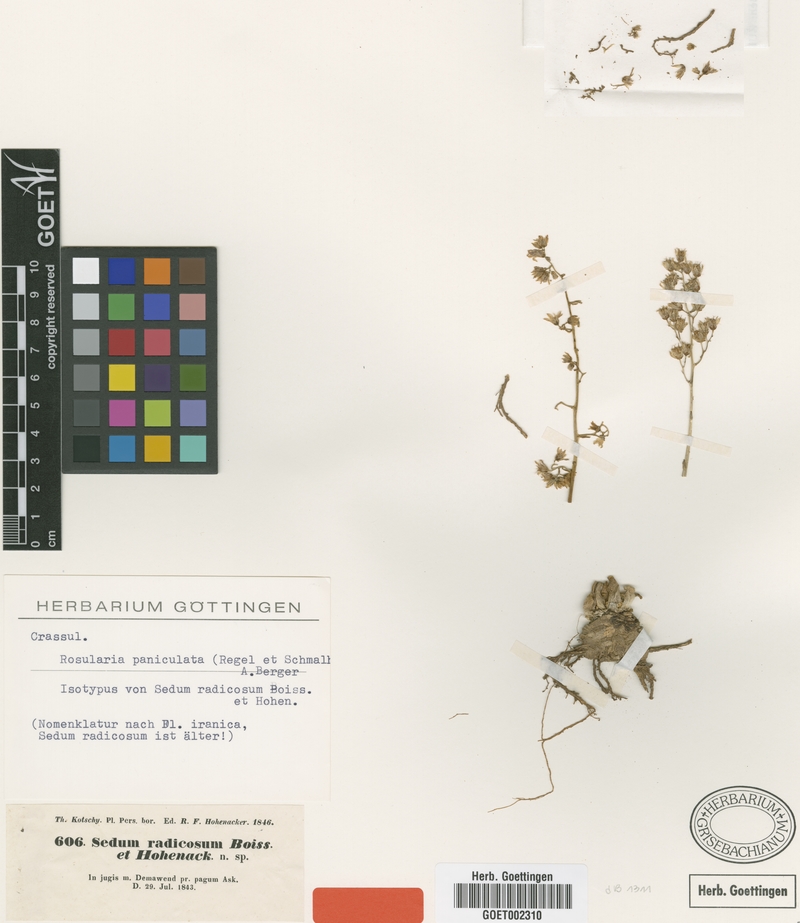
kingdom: Plantae
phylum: Tracheophyta
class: Magnoliopsida
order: Saxifragales
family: Crassulaceae
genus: Rosularia
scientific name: Rosularia radicosa
